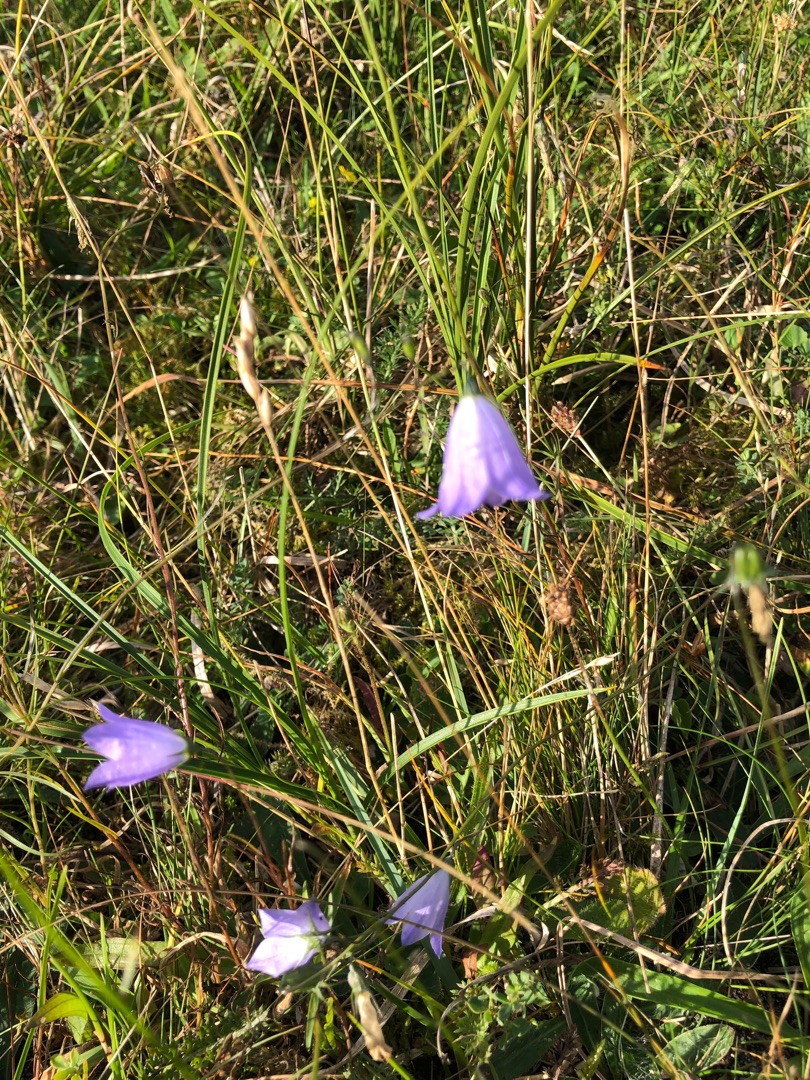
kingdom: Plantae
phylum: Tracheophyta
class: Magnoliopsida
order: Asterales
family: Campanulaceae
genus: Campanula
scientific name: Campanula rotundifolia
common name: Liden klokke
